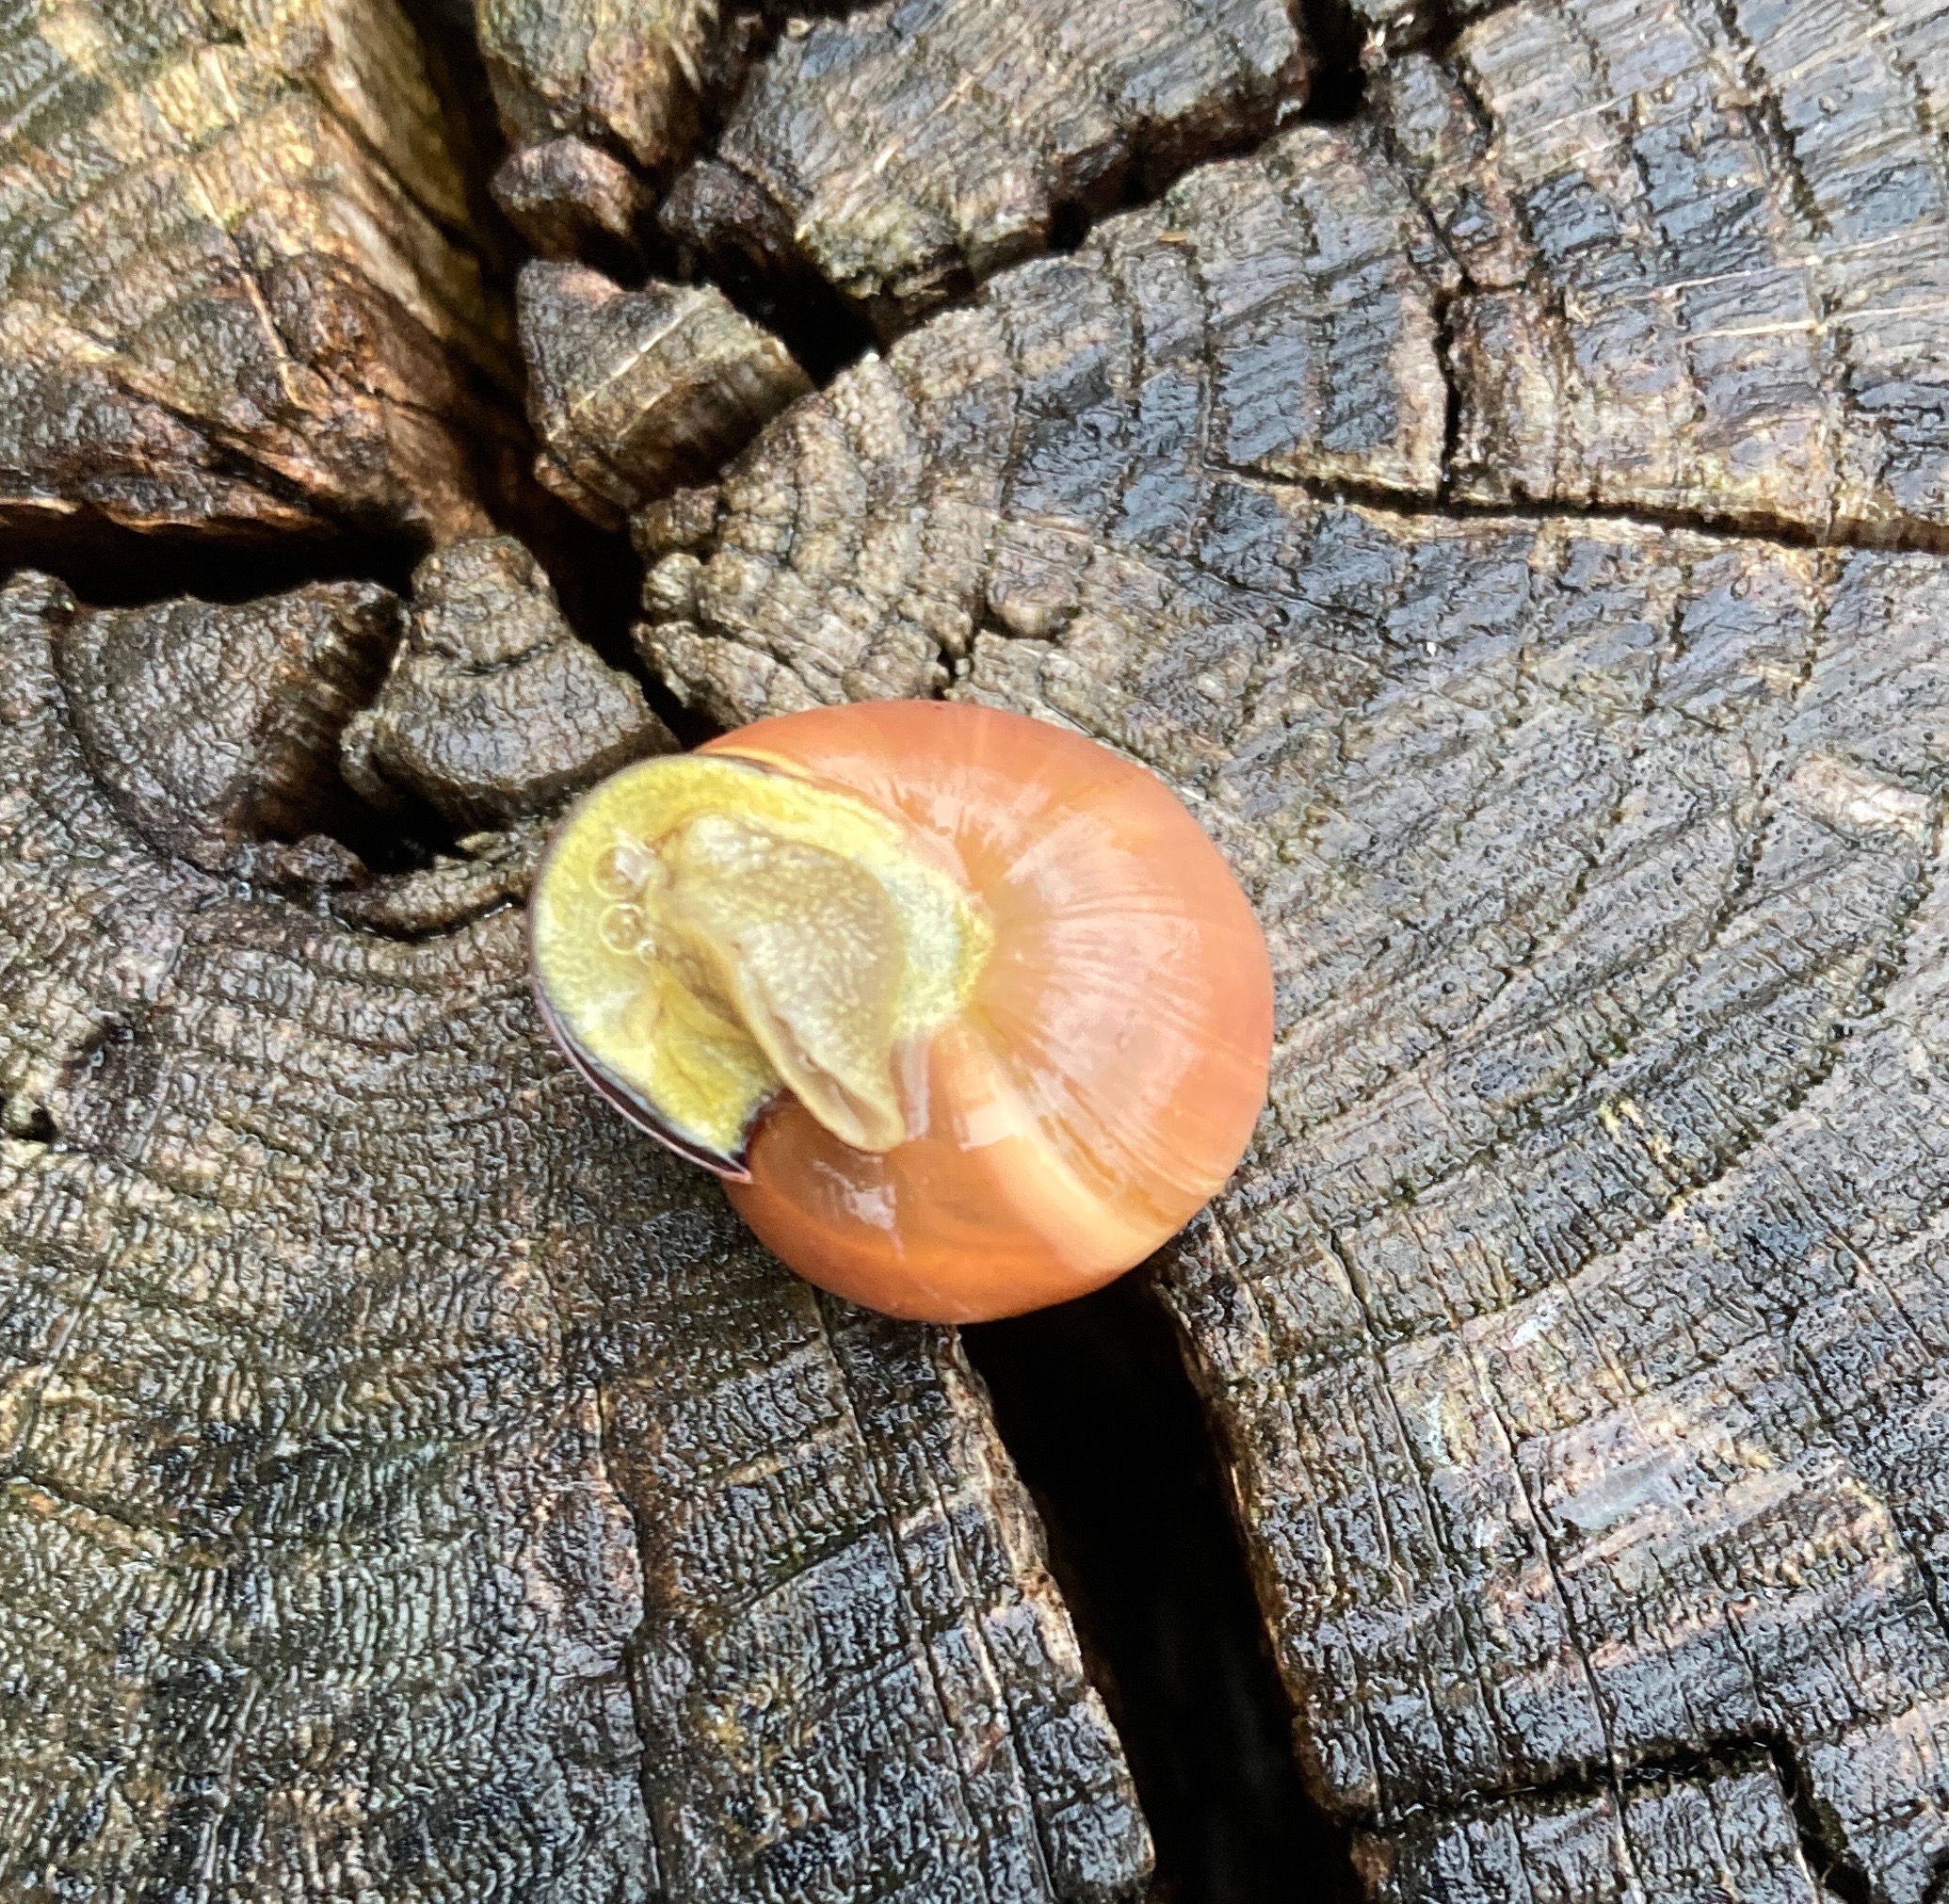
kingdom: Animalia
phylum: Mollusca
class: Gastropoda
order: Stylommatophora
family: Helicidae
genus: Cepaea
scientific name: Cepaea nemoralis
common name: Lundsnegl
